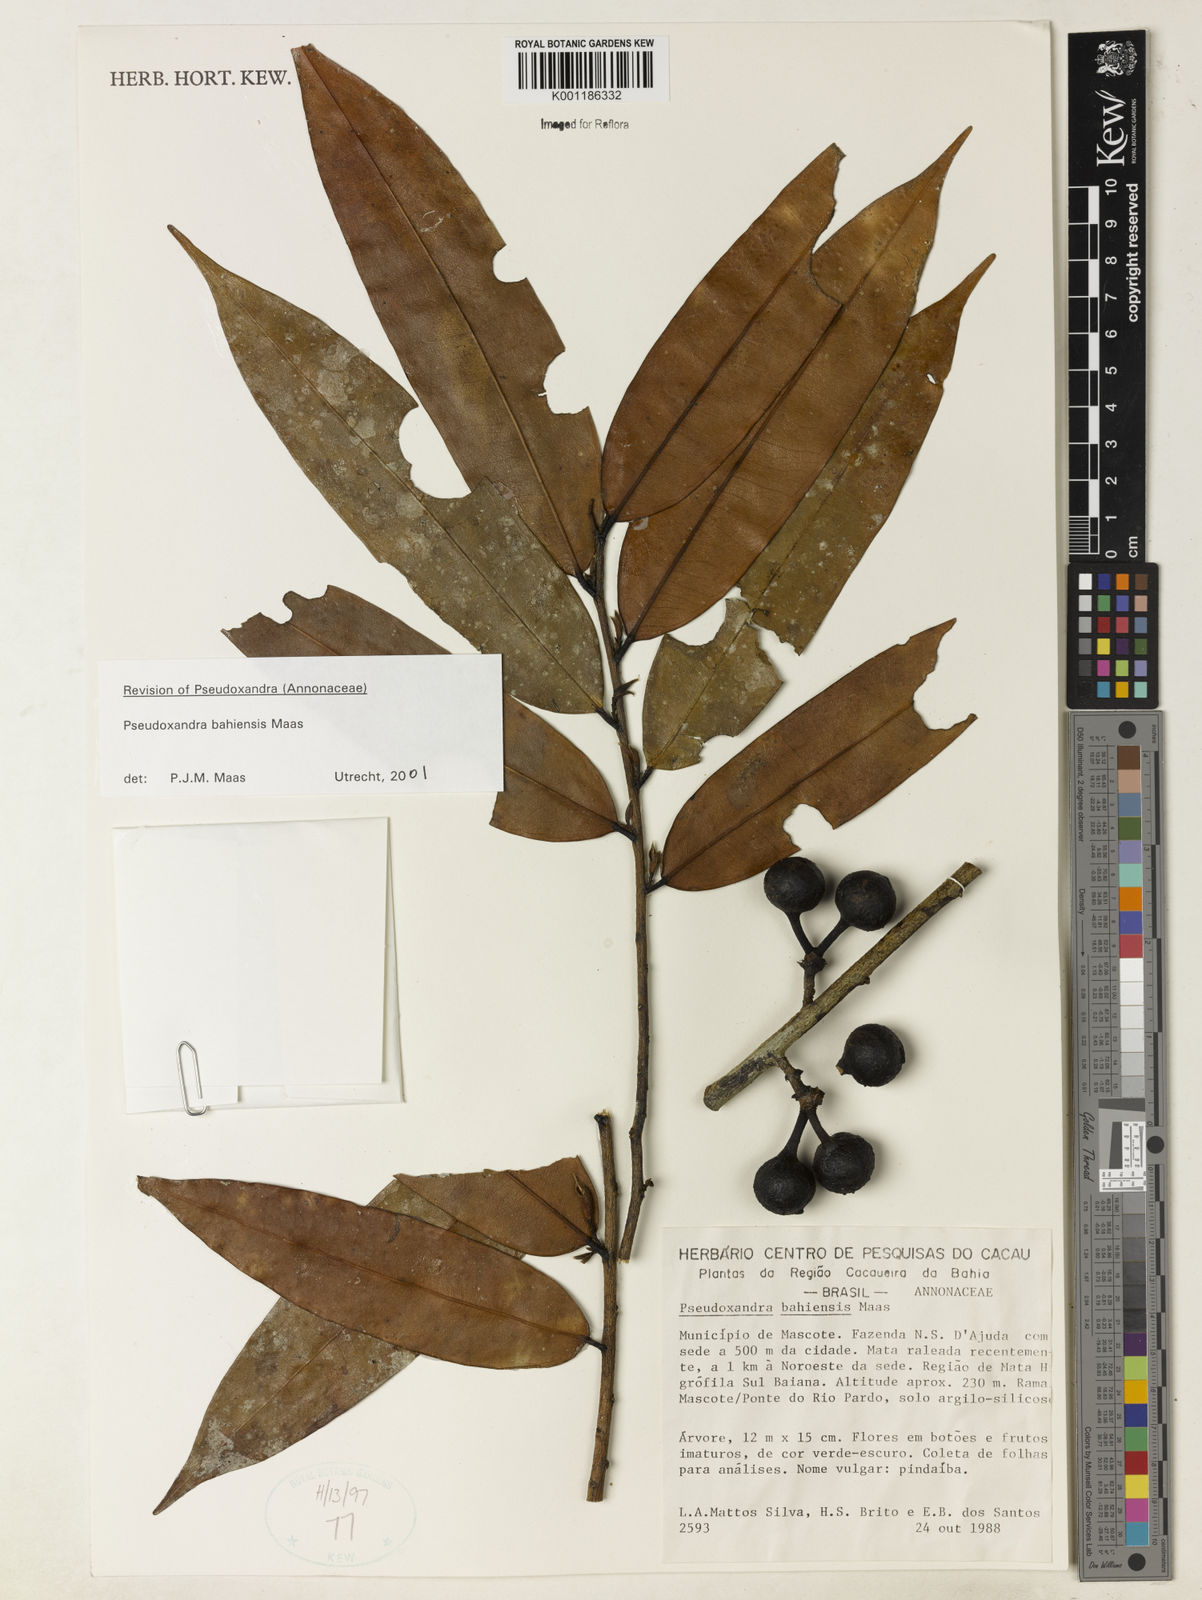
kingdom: Plantae
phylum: Tracheophyta
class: Magnoliopsida
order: Magnoliales
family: Annonaceae
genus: Pseudoxandra
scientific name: Pseudoxandra bahiensis
